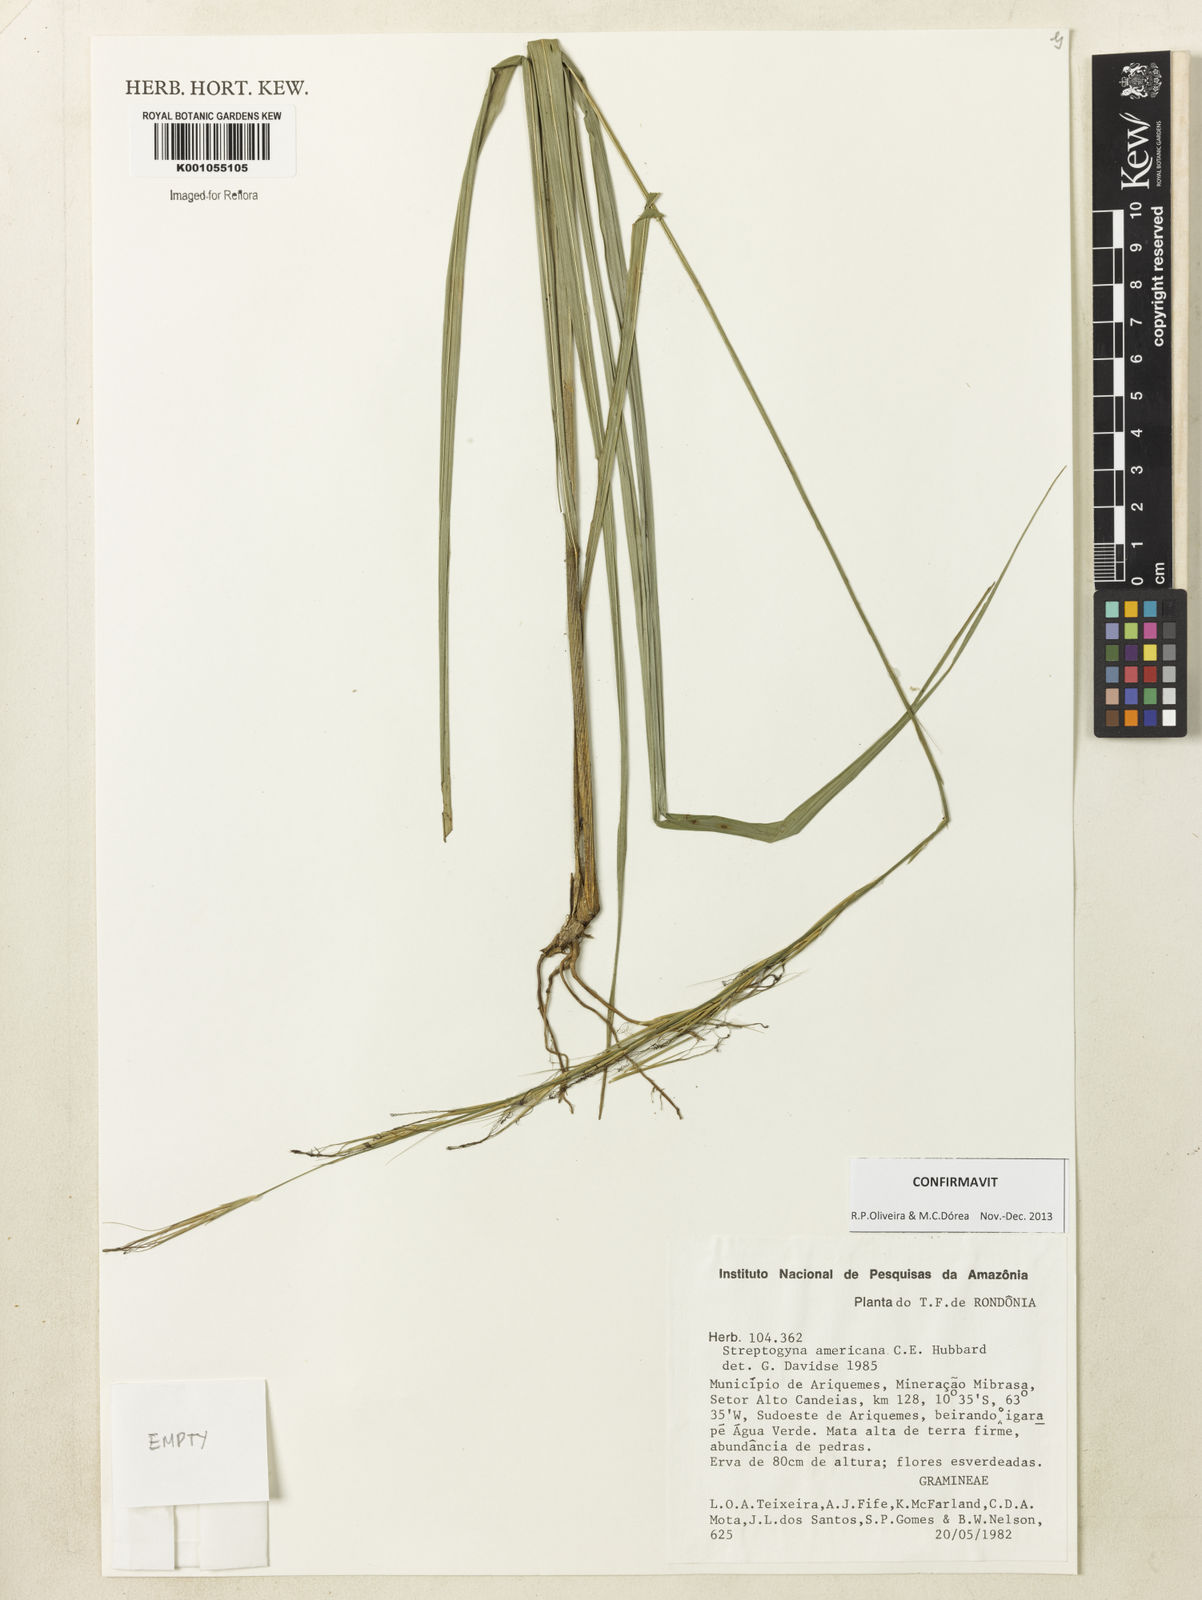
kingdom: Plantae
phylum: Tracheophyta
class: Liliopsida
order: Poales
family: Poaceae
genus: Streptogyna
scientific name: Streptogyna americana
